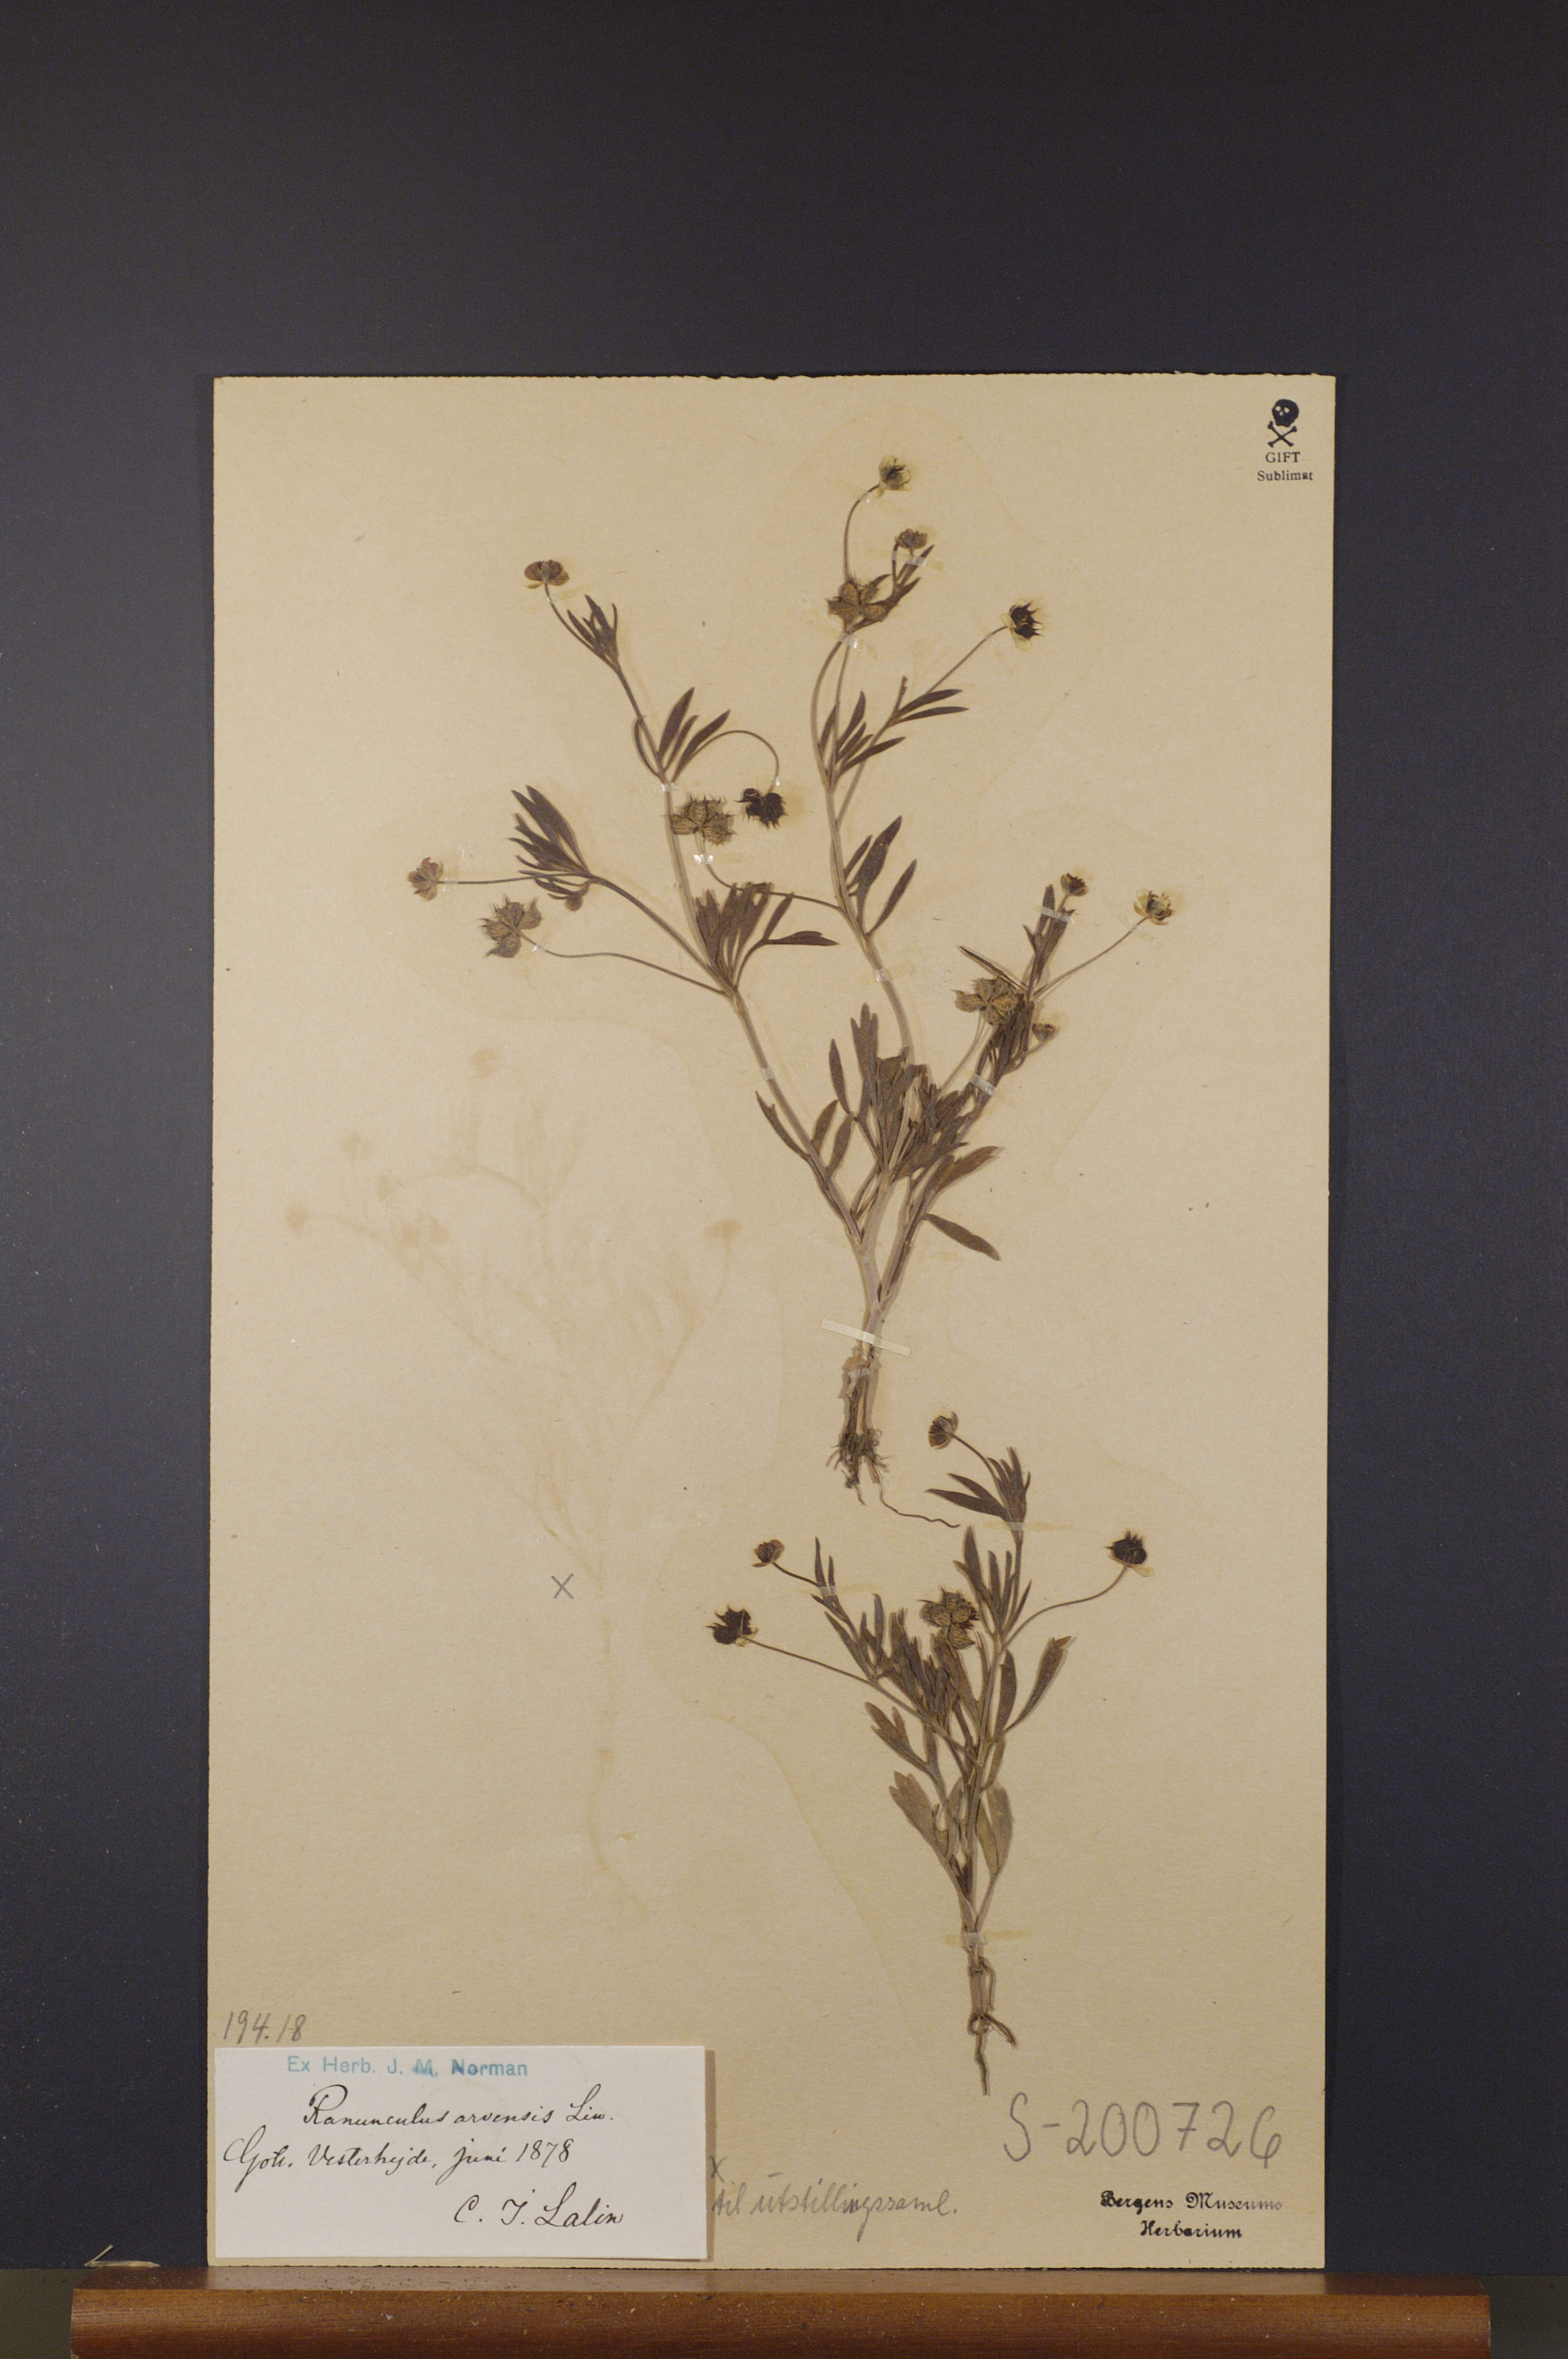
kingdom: Plantae
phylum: Tracheophyta
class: Magnoliopsida
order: Ranunculales
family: Ranunculaceae
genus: Ranunculus
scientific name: Ranunculus arvensis
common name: Corn buttercup
